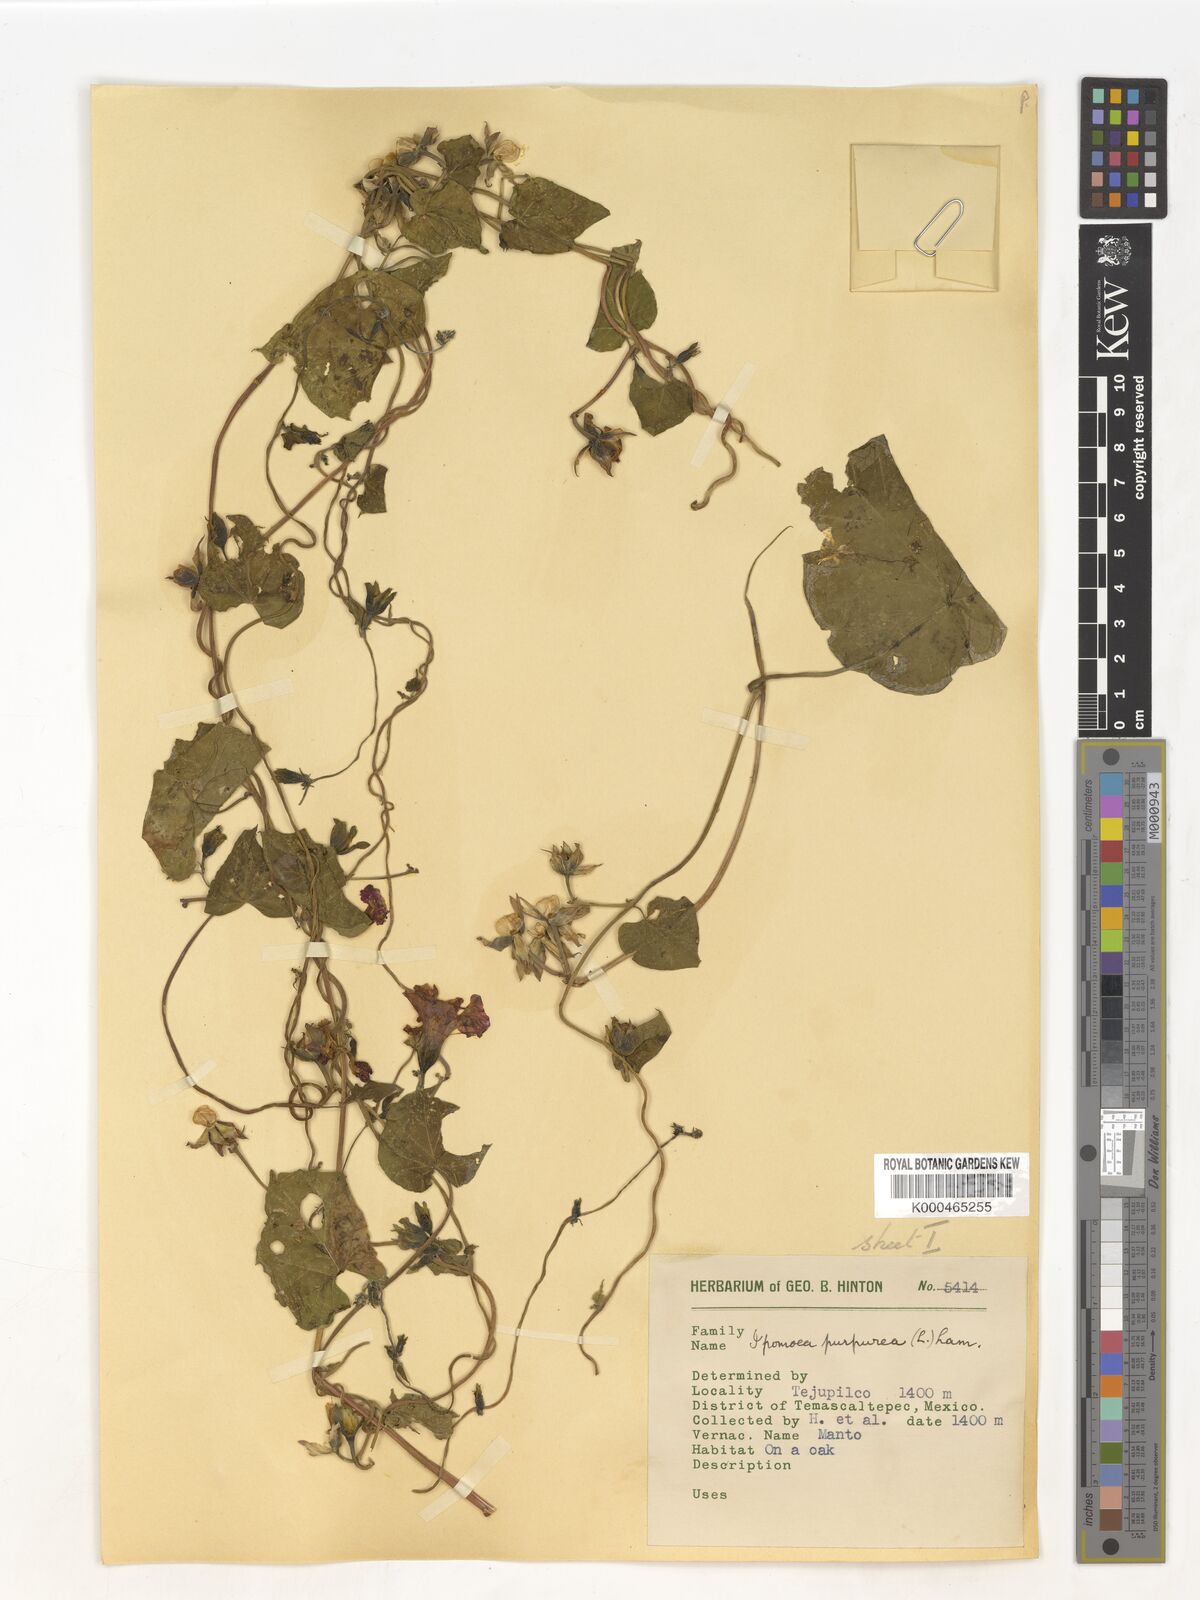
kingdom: Plantae
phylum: Tracheophyta
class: Magnoliopsida
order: Solanales
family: Convolvulaceae
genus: Ipomoea
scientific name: Ipomoea purpurea
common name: Common morning-glory
